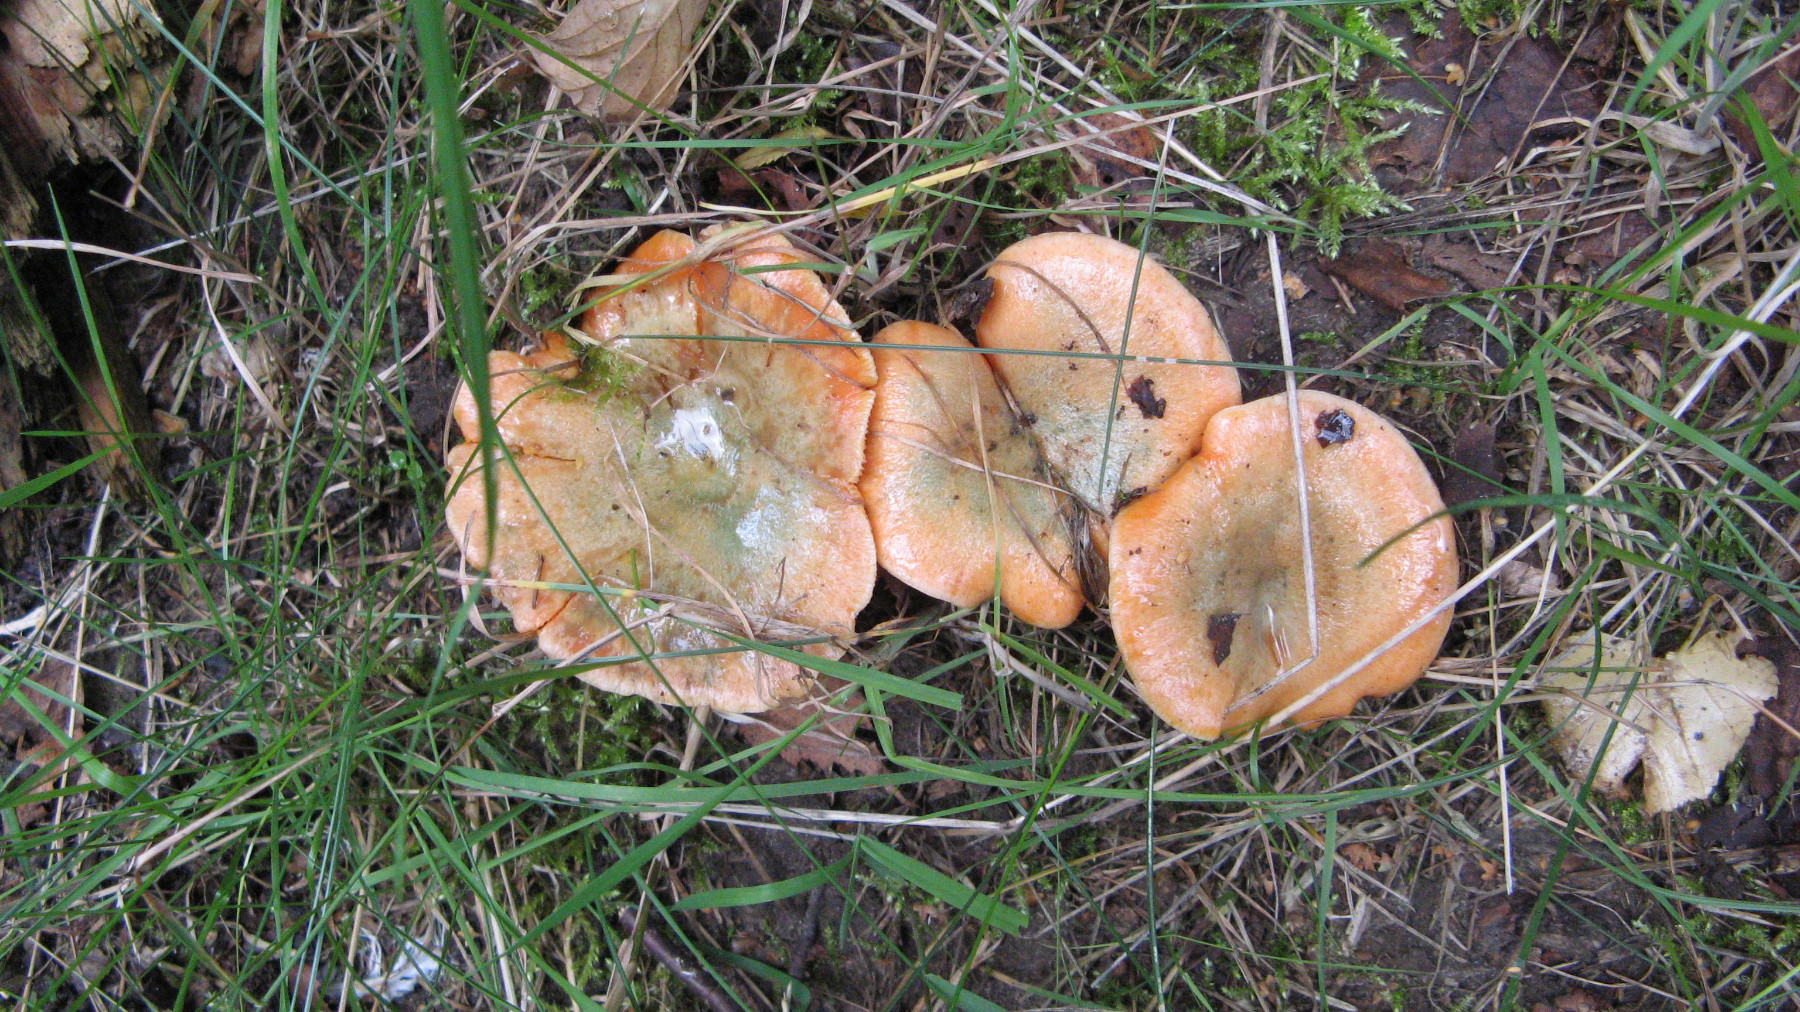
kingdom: Fungi
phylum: Basidiomycota
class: Agaricomycetes
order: Russulales
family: Russulaceae
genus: Lactarius
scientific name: Lactarius deterrimus
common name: gran-mælkehat
